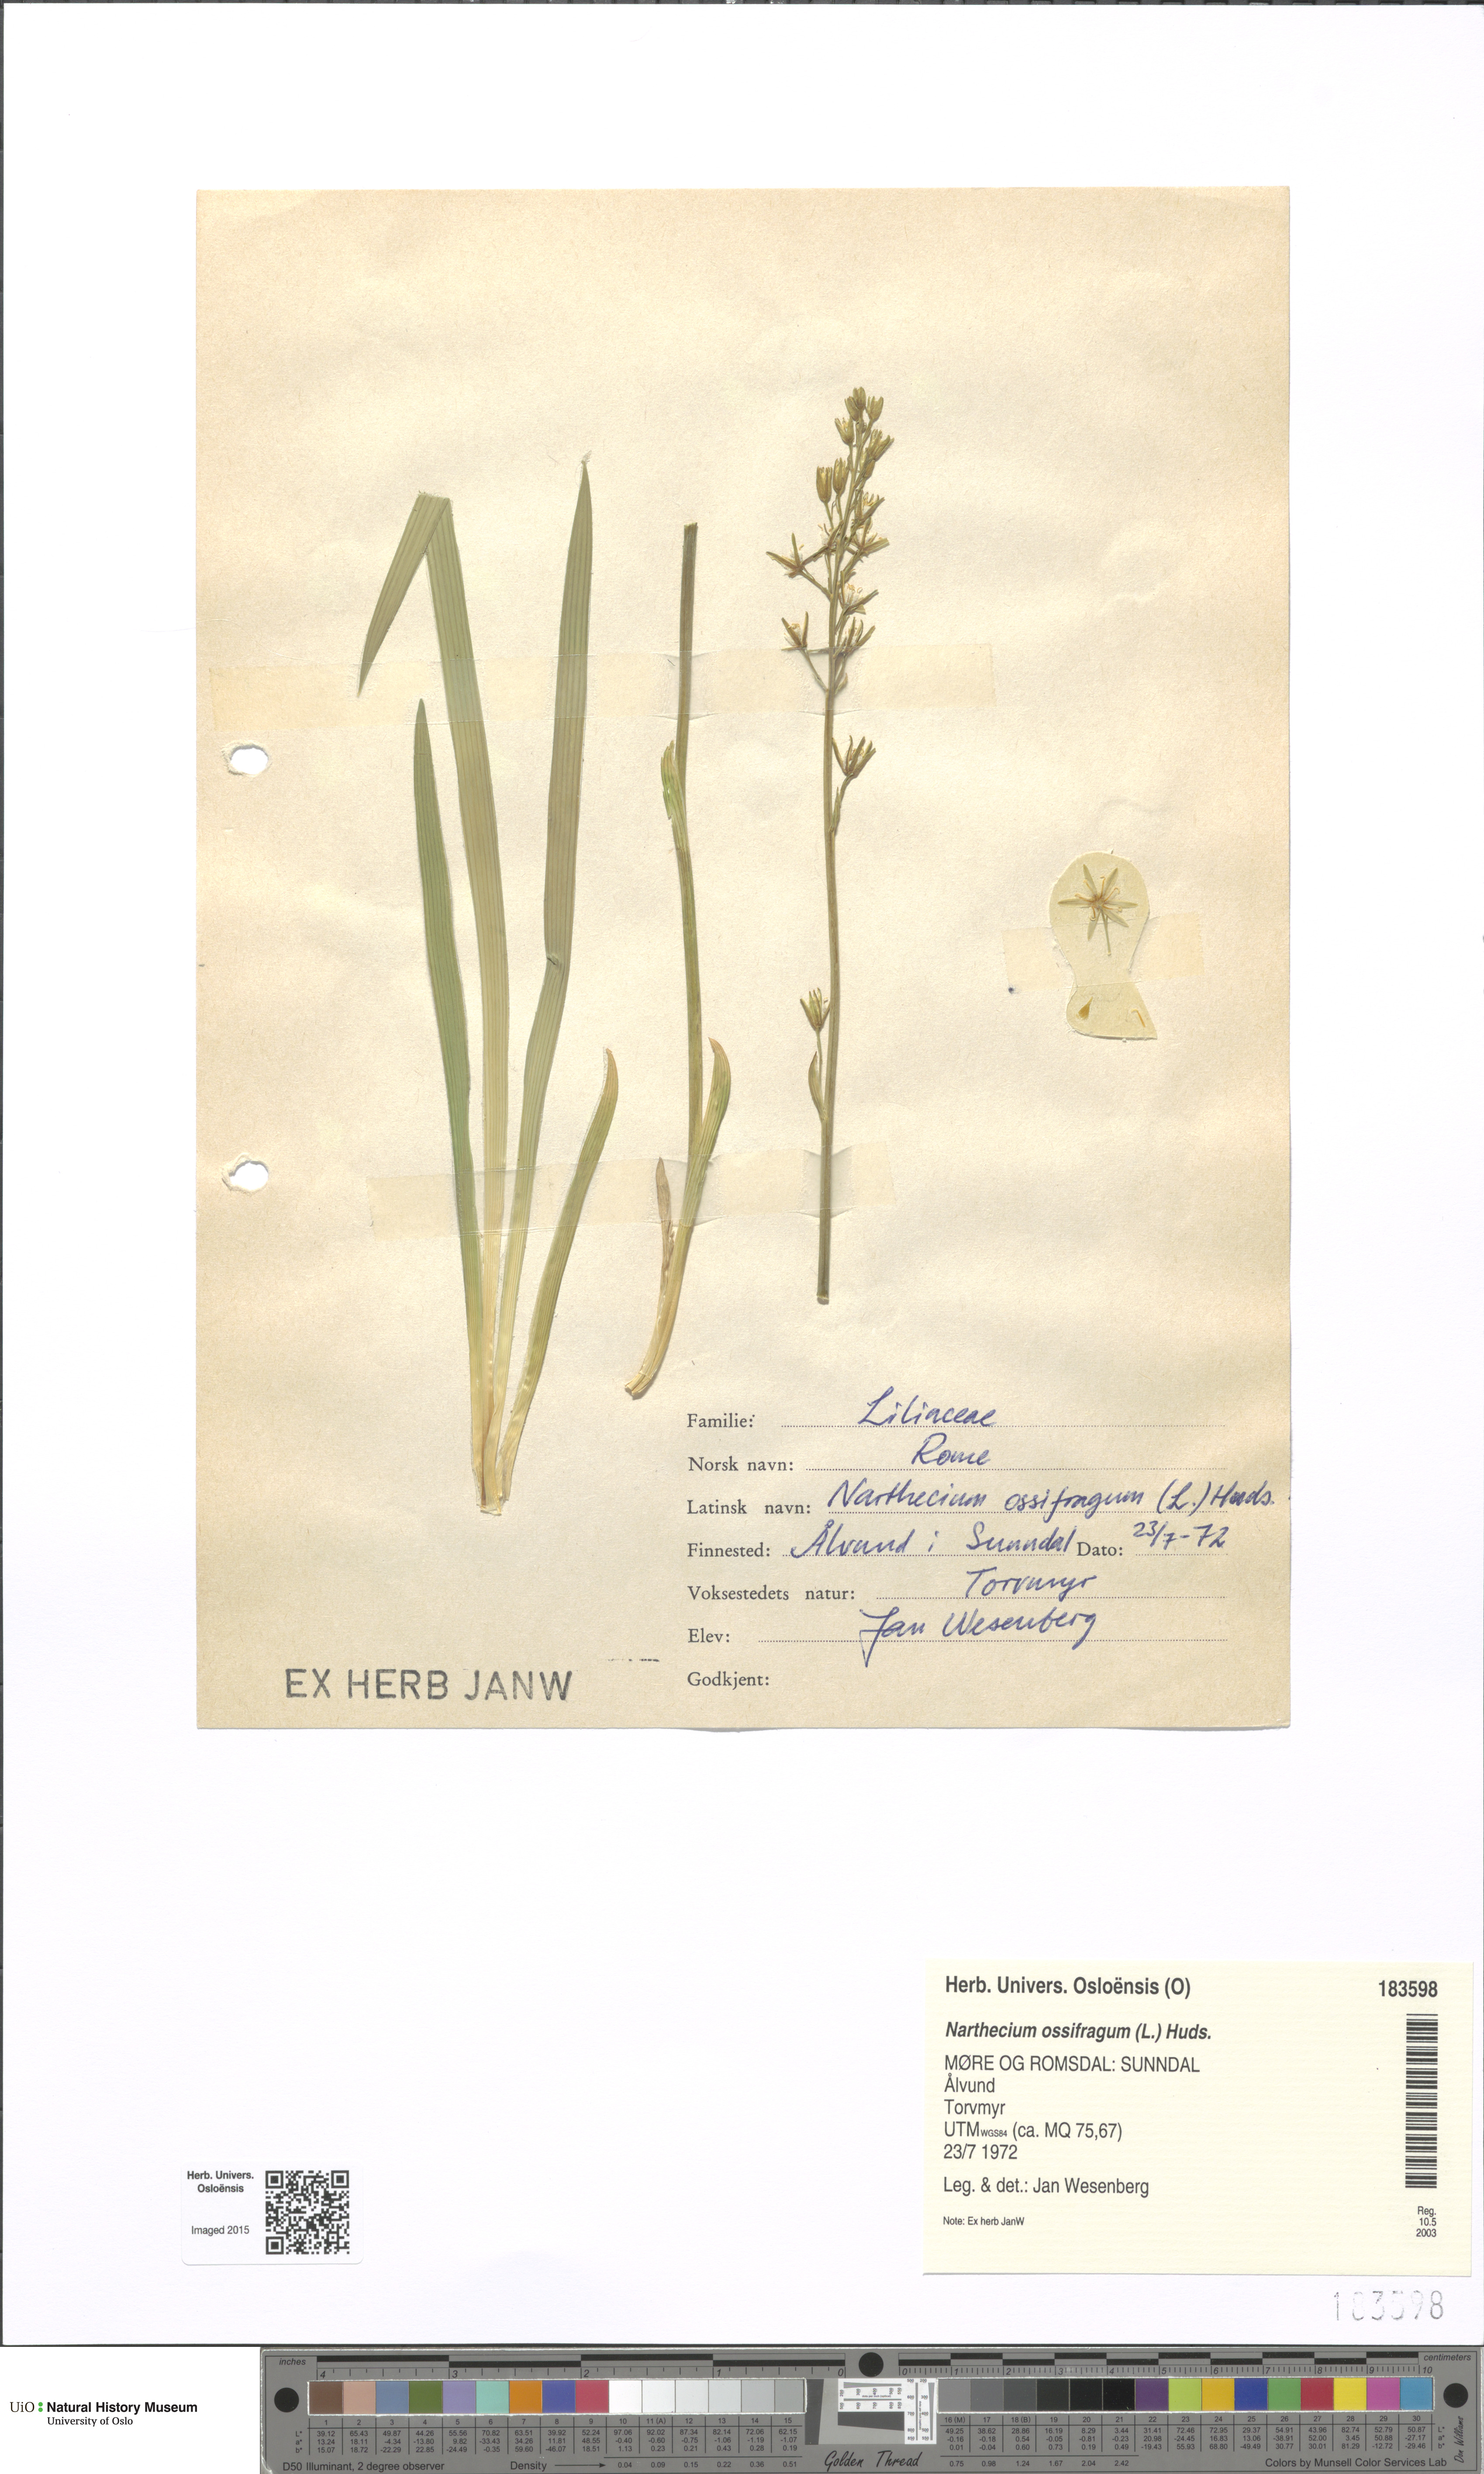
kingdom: Plantae
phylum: Tracheophyta
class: Liliopsida
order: Dioscoreales
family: Nartheciaceae
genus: Narthecium
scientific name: Narthecium ossifragum
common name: Bog asphodel
